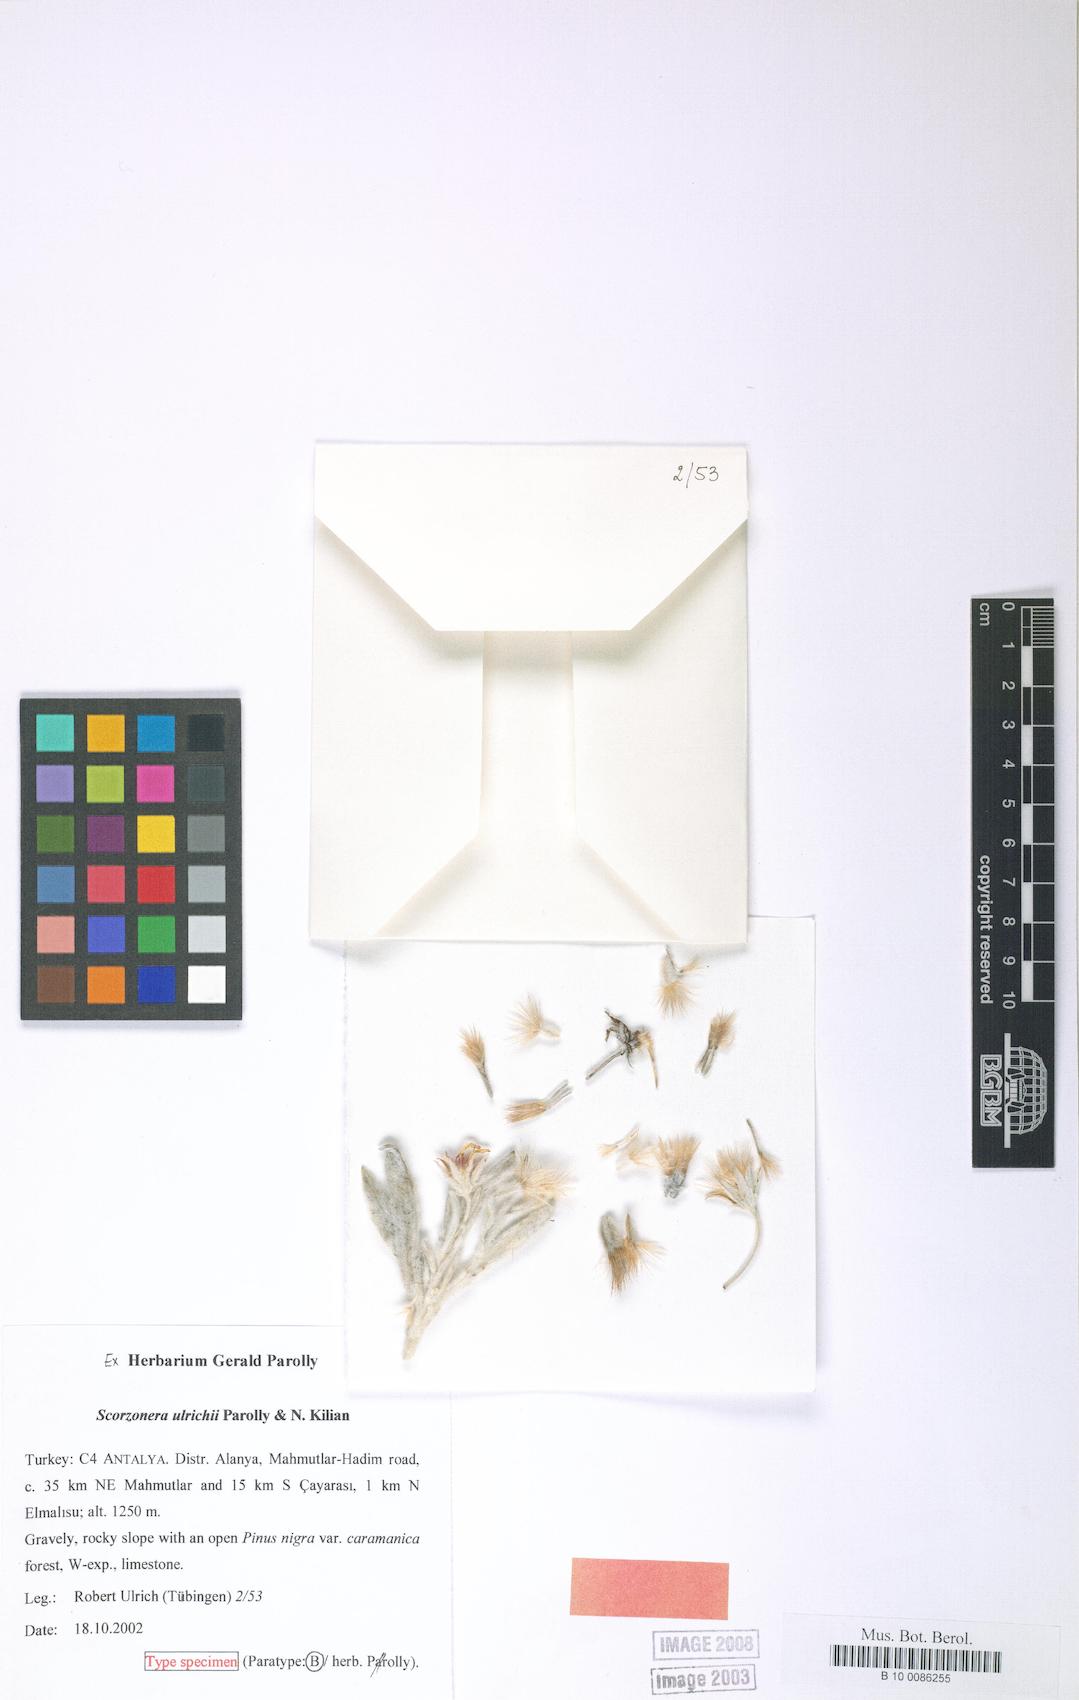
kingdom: Plantae
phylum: Tracheophyta
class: Magnoliopsida
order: Asterales
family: Asteraceae
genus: Bilgea
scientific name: Bilgea ulrichii
